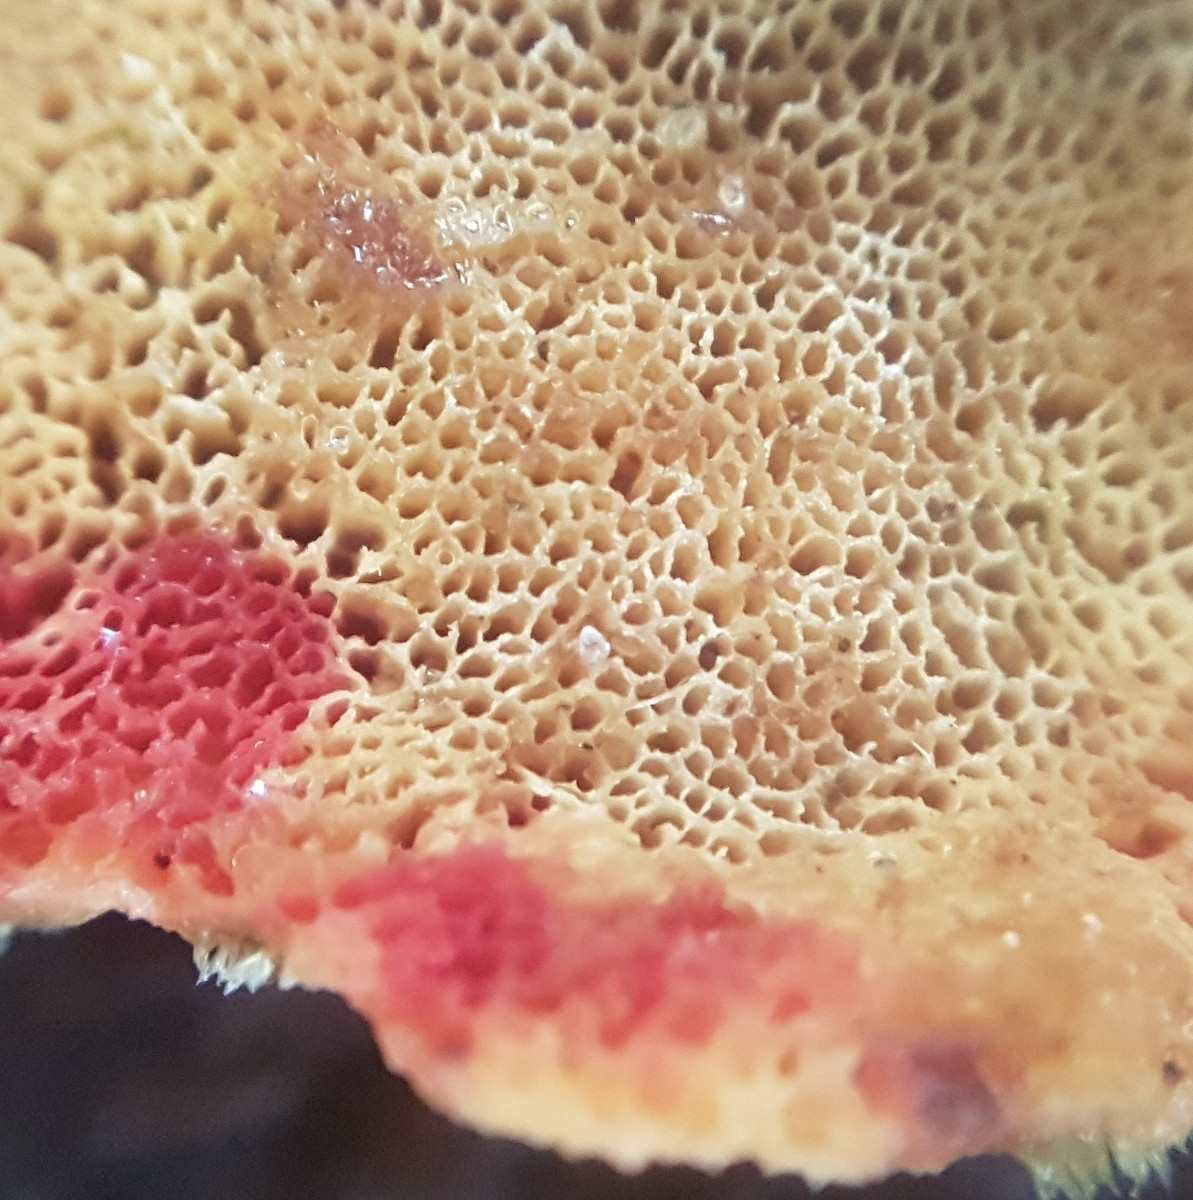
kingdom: Fungi
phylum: Basidiomycota
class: Agaricomycetes
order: Polyporales
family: Polyporaceae
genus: Trametes
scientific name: Trametes versicolor
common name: broget læderporesvamp
